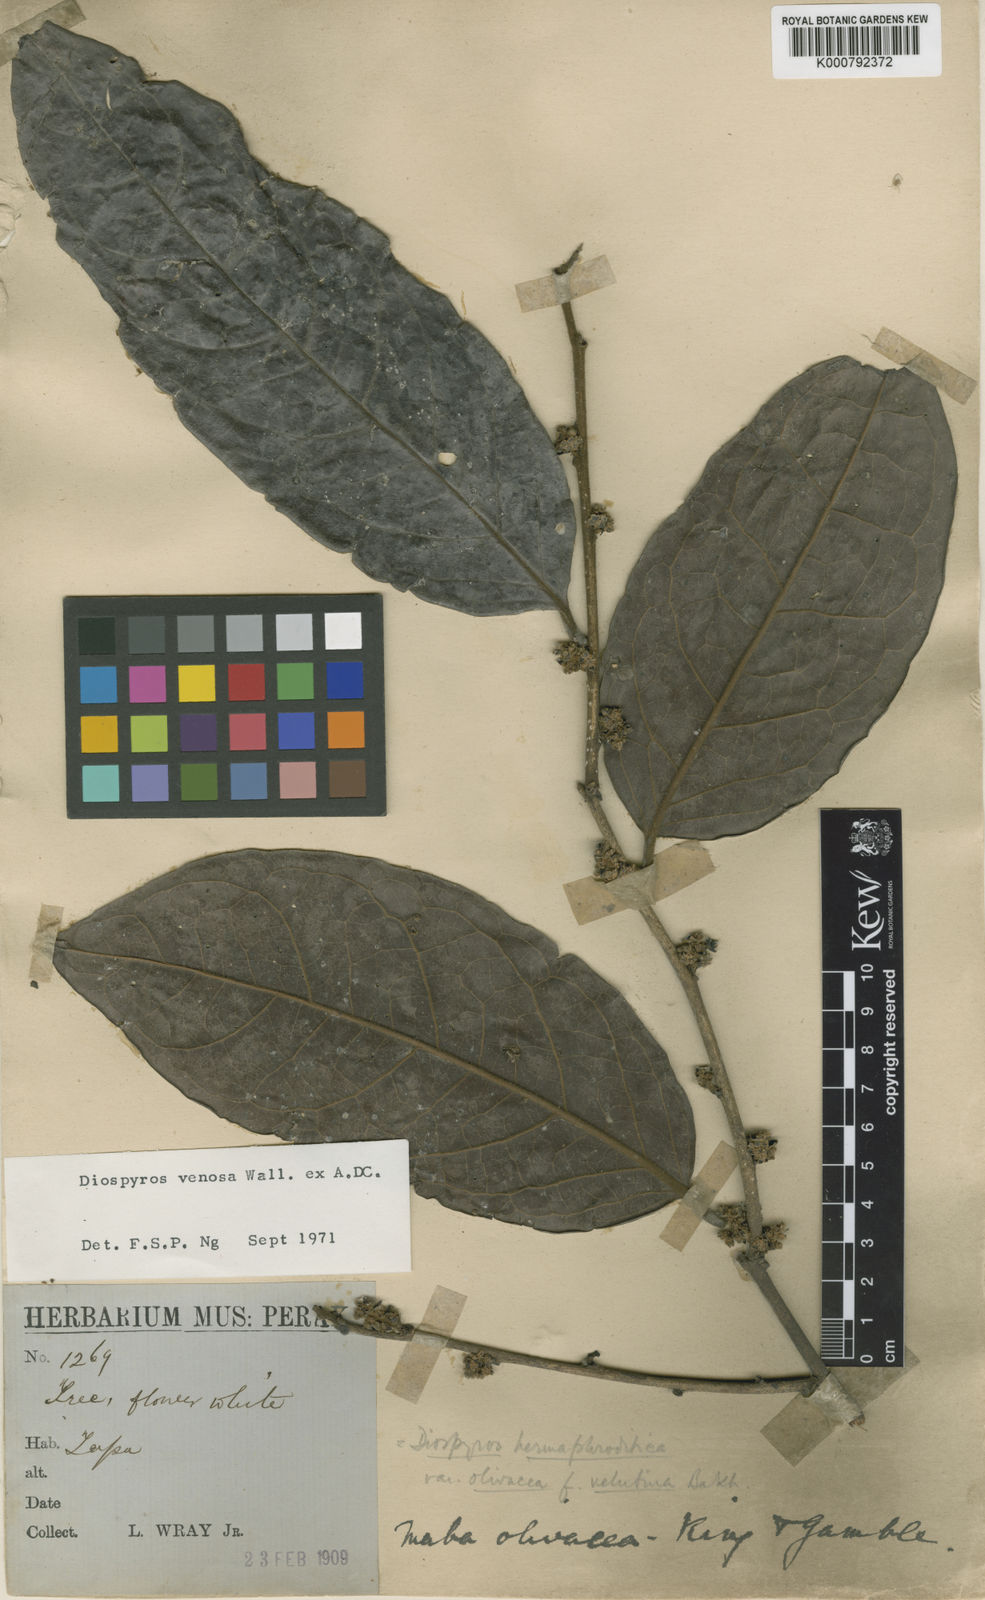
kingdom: Plantae
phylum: Tracheophyta
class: Magnoliopsida
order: Ericales
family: Ebenaceae
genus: Diospyros
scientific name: Diospyros venosa
